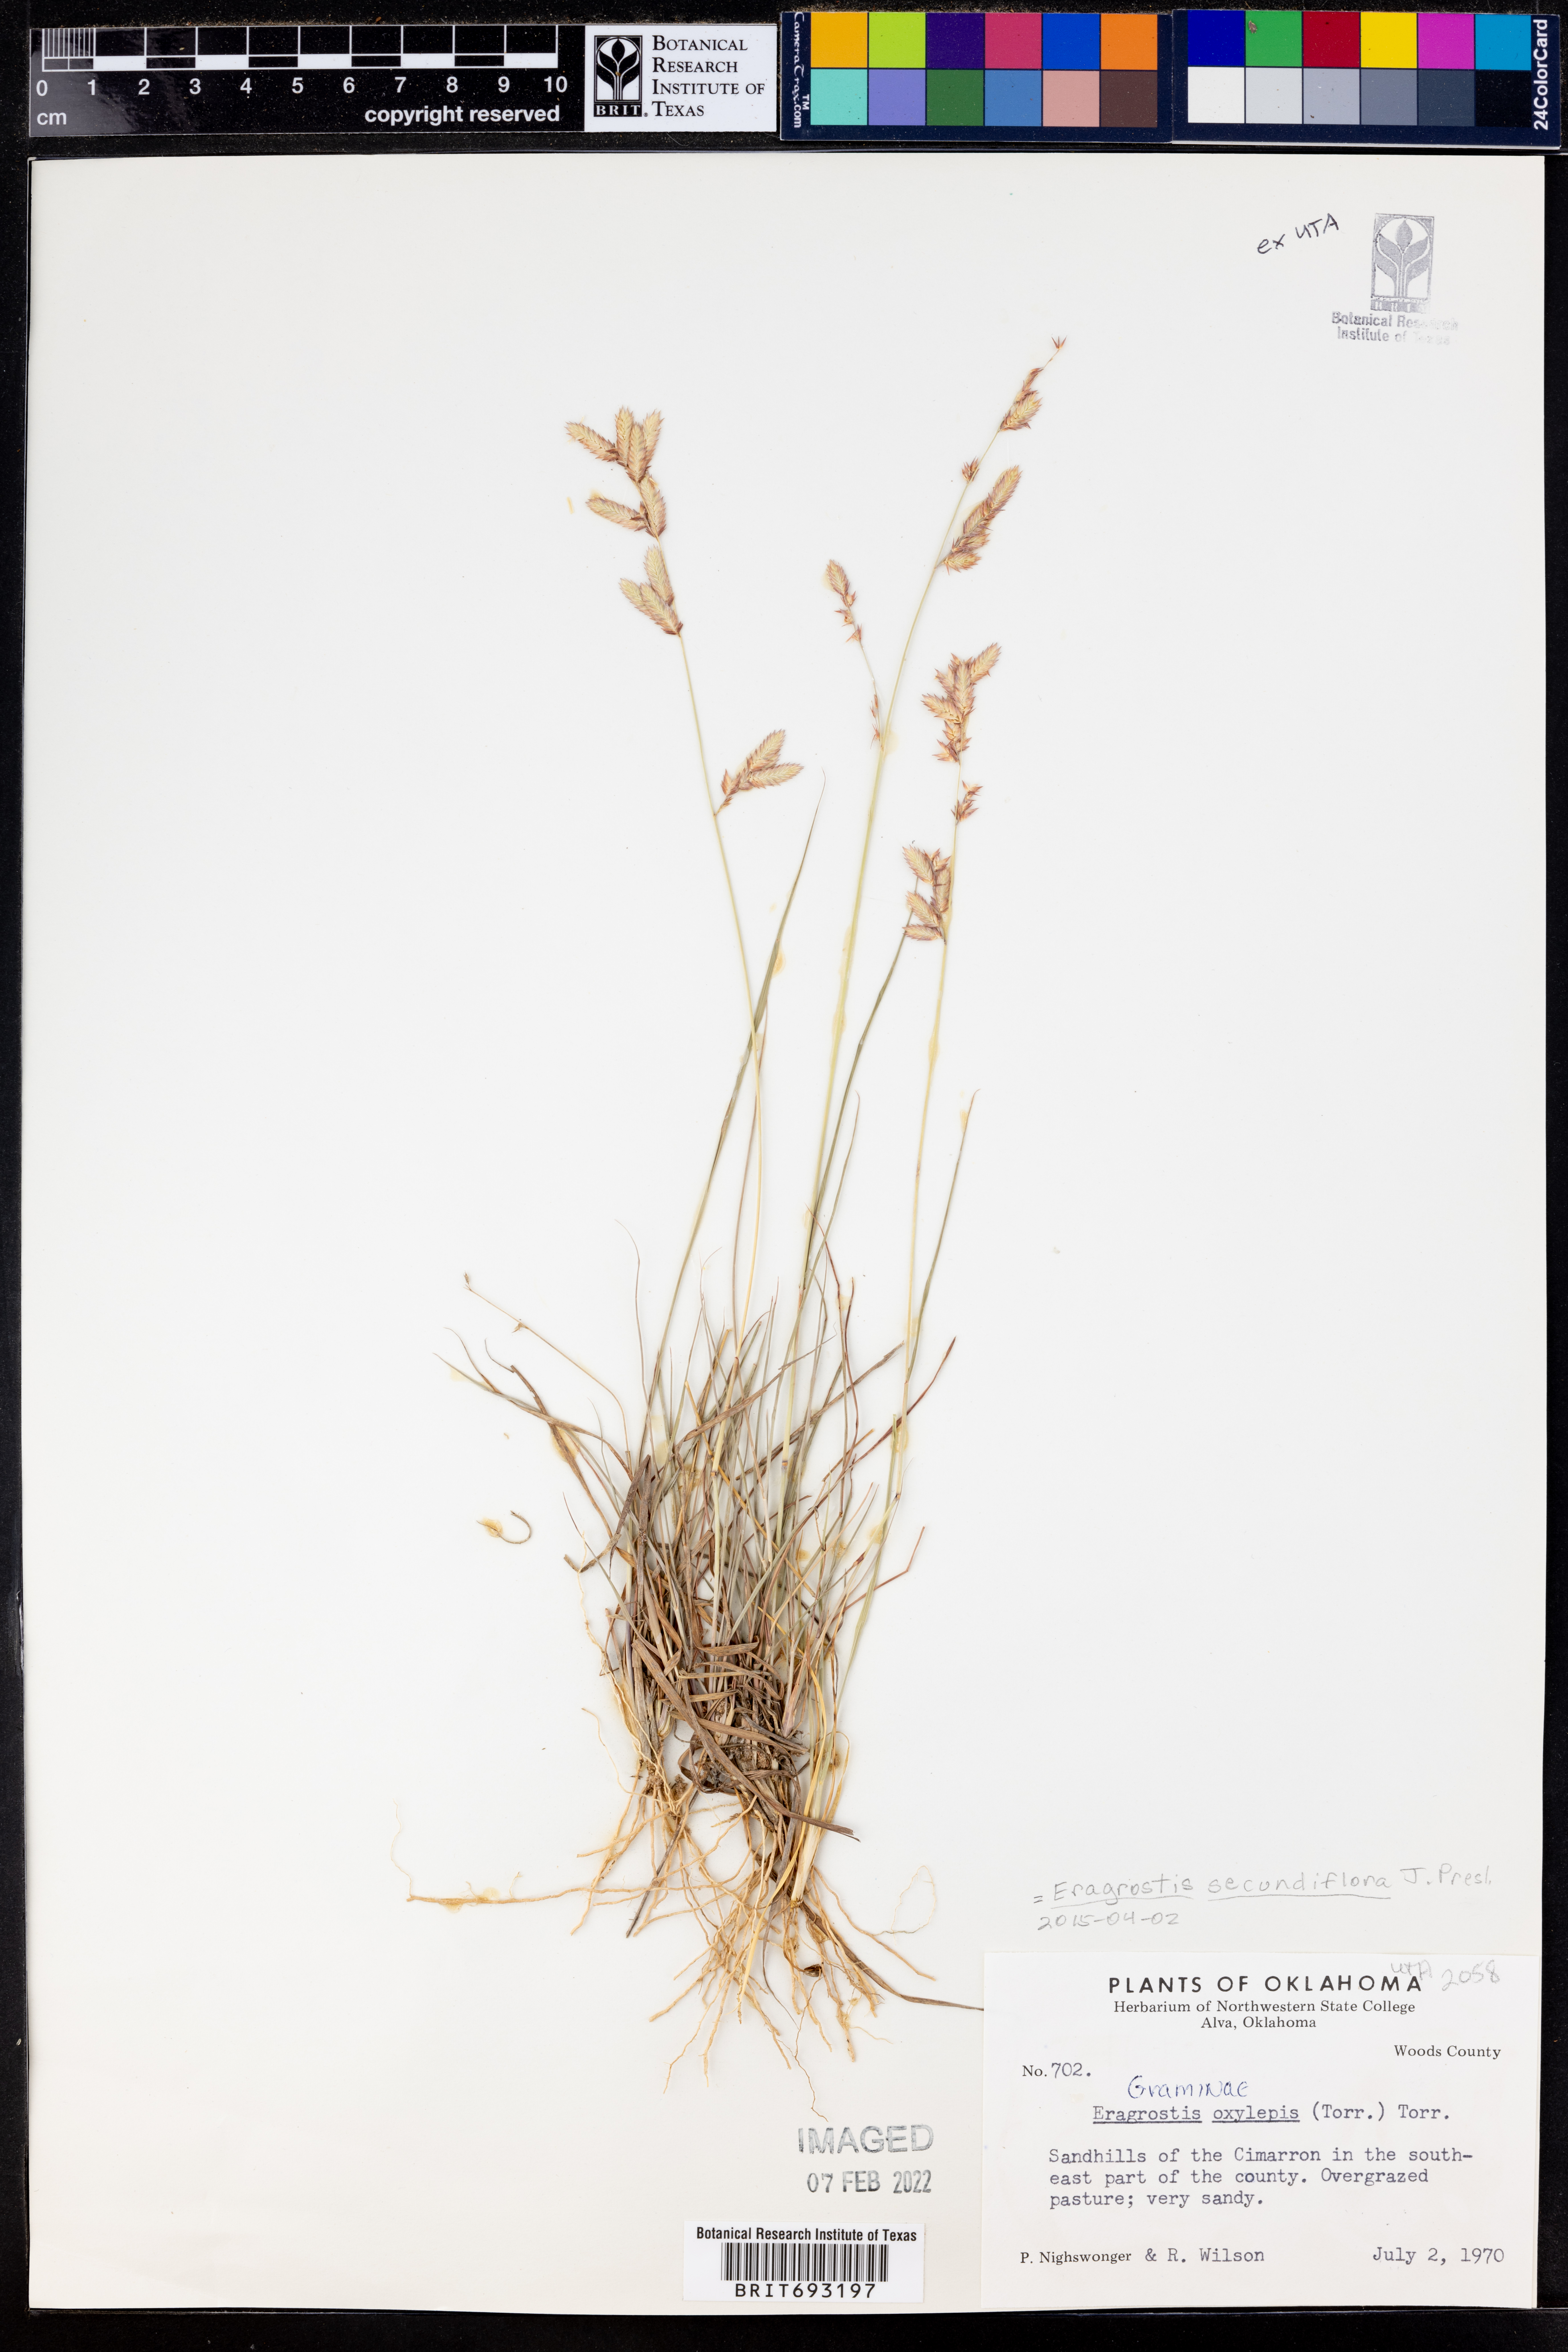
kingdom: Plantae
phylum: Tracheophyta
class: Liliopsida
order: Poales
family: Poaceae
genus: Eragrostis
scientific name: Eragrostis secundiflora
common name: Red love grass
